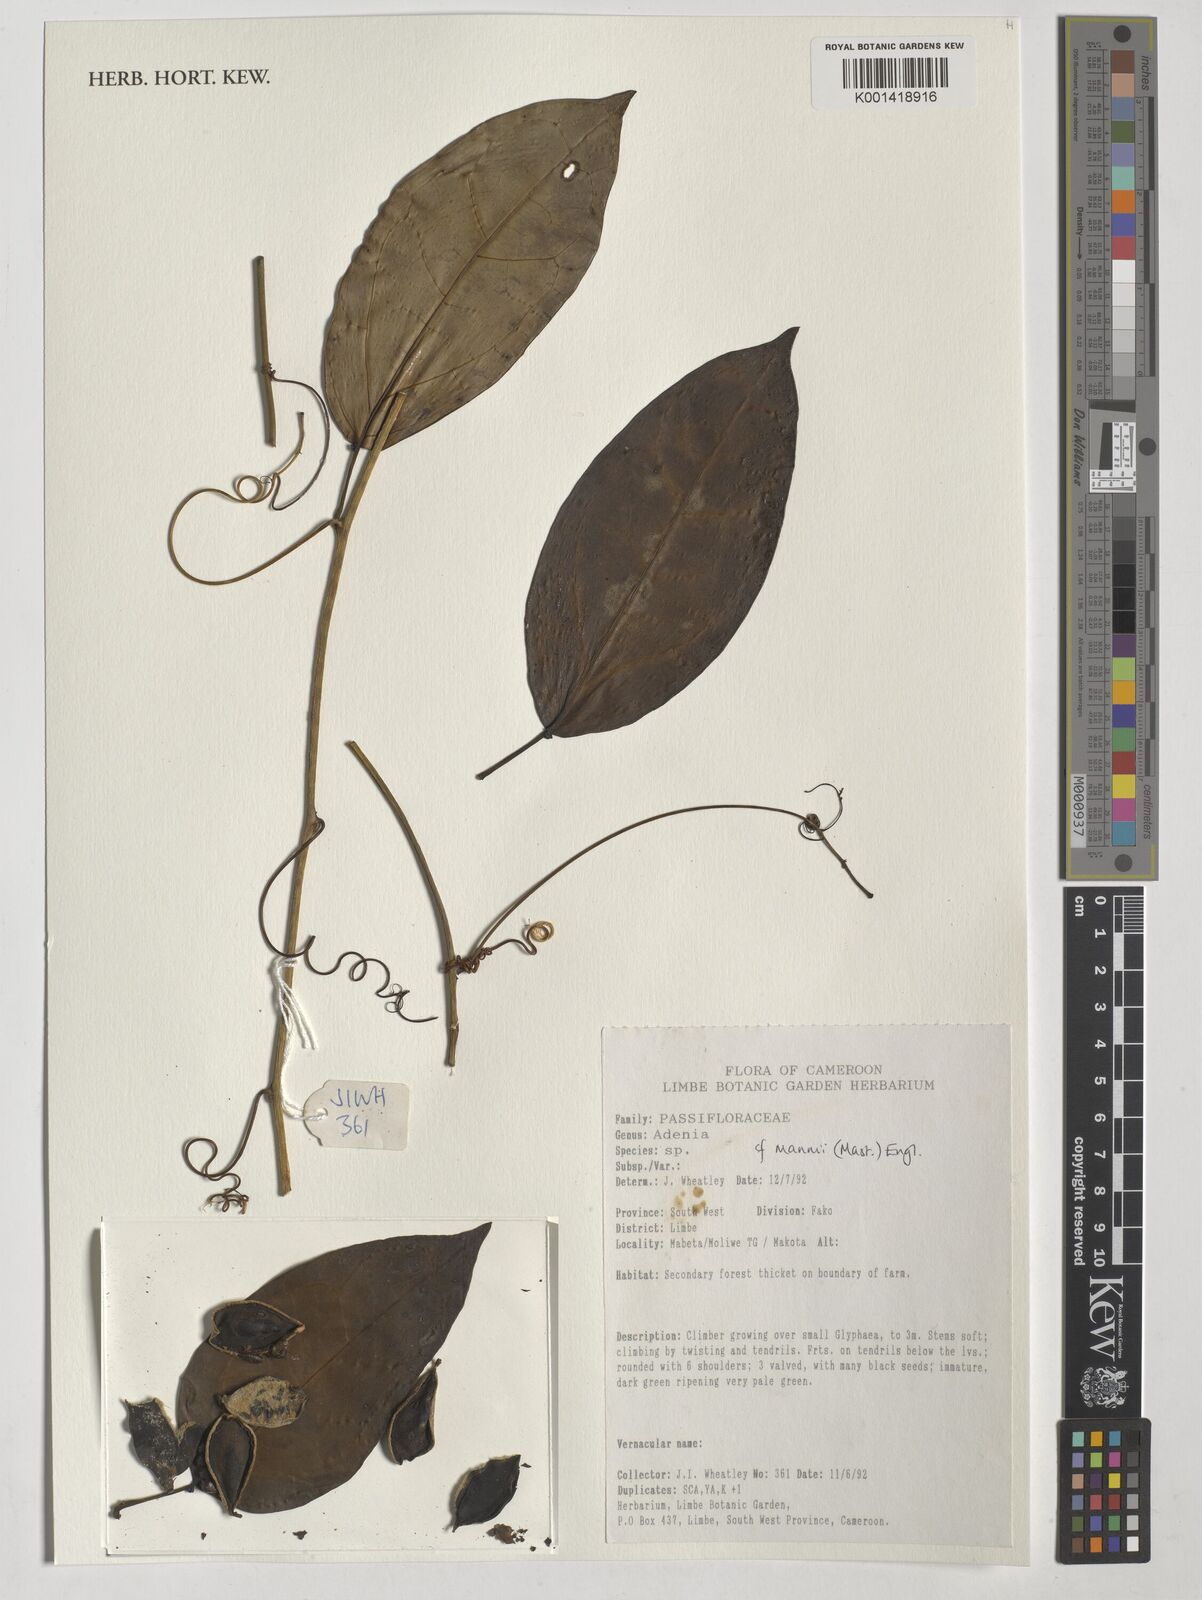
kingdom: Plantae
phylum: Tracheophyta
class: Magnoliopsida
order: Malpighiales
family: Passifloraceae
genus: Adenia
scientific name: Adenia mannii
